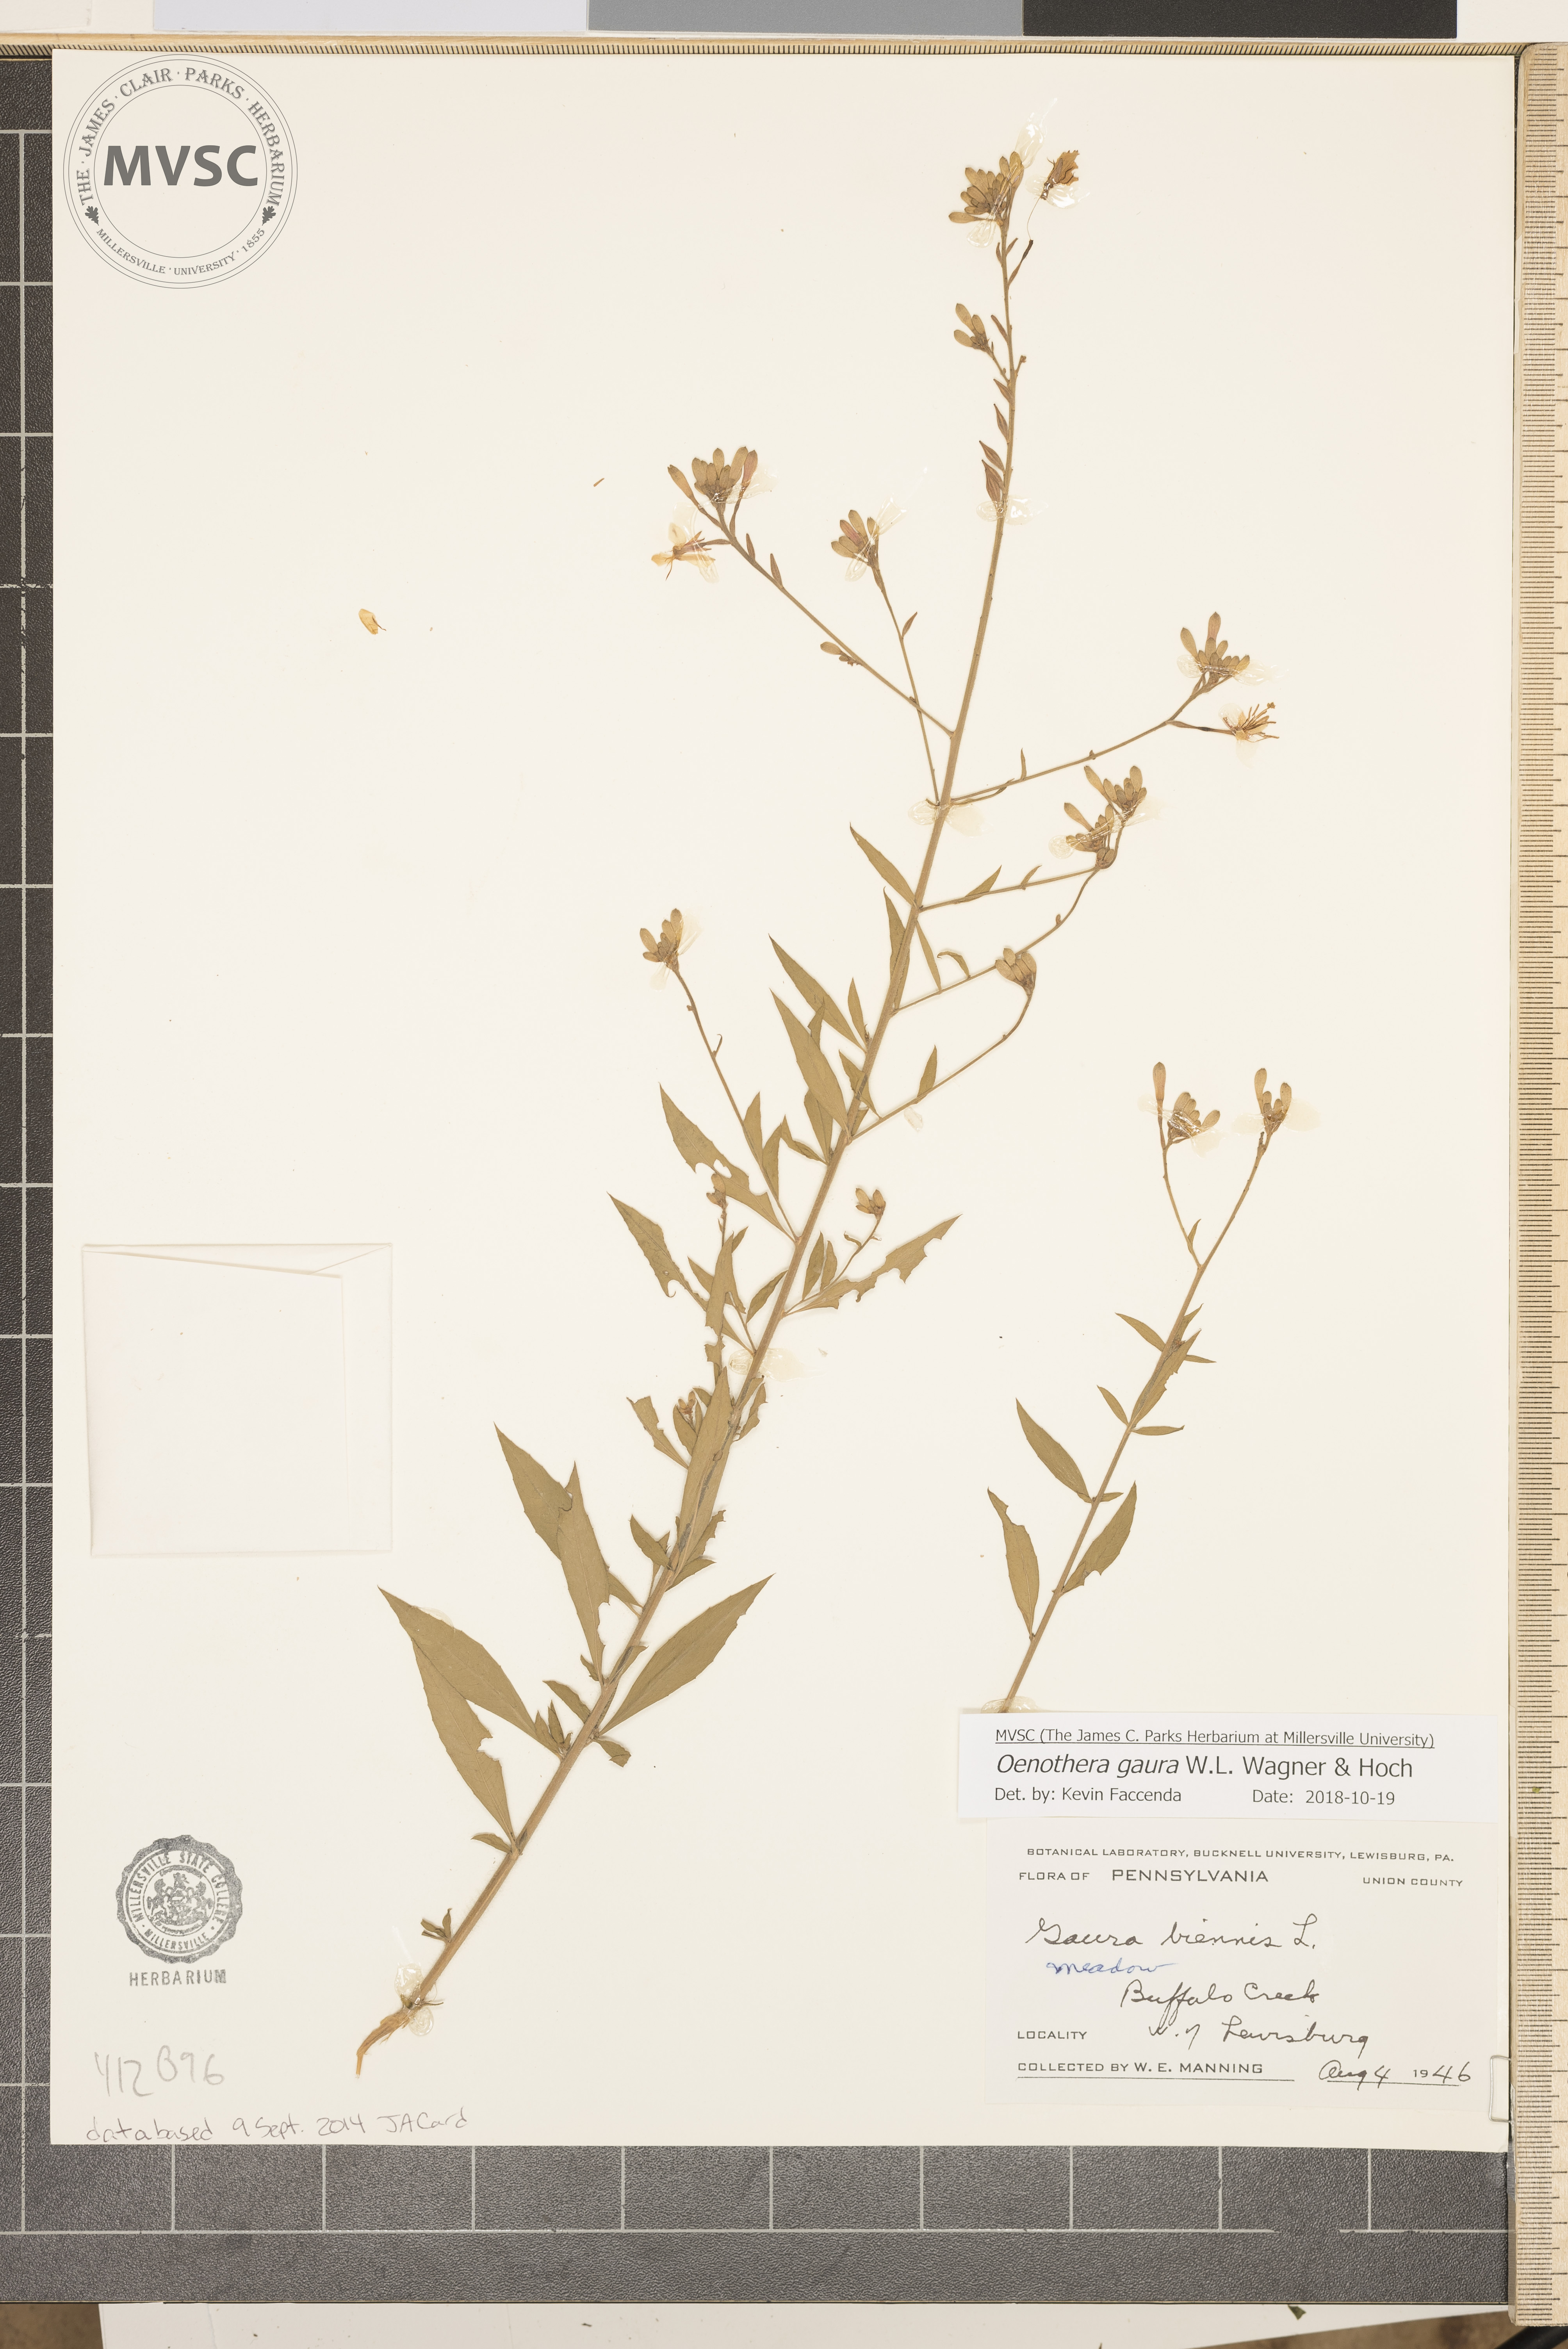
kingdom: Plantae
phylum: Tracheophyta
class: Magnoliopsida
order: Myrtales
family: Onagraceae
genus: Oenothera
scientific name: Oenothera gaura
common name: Biennial beeblossom
